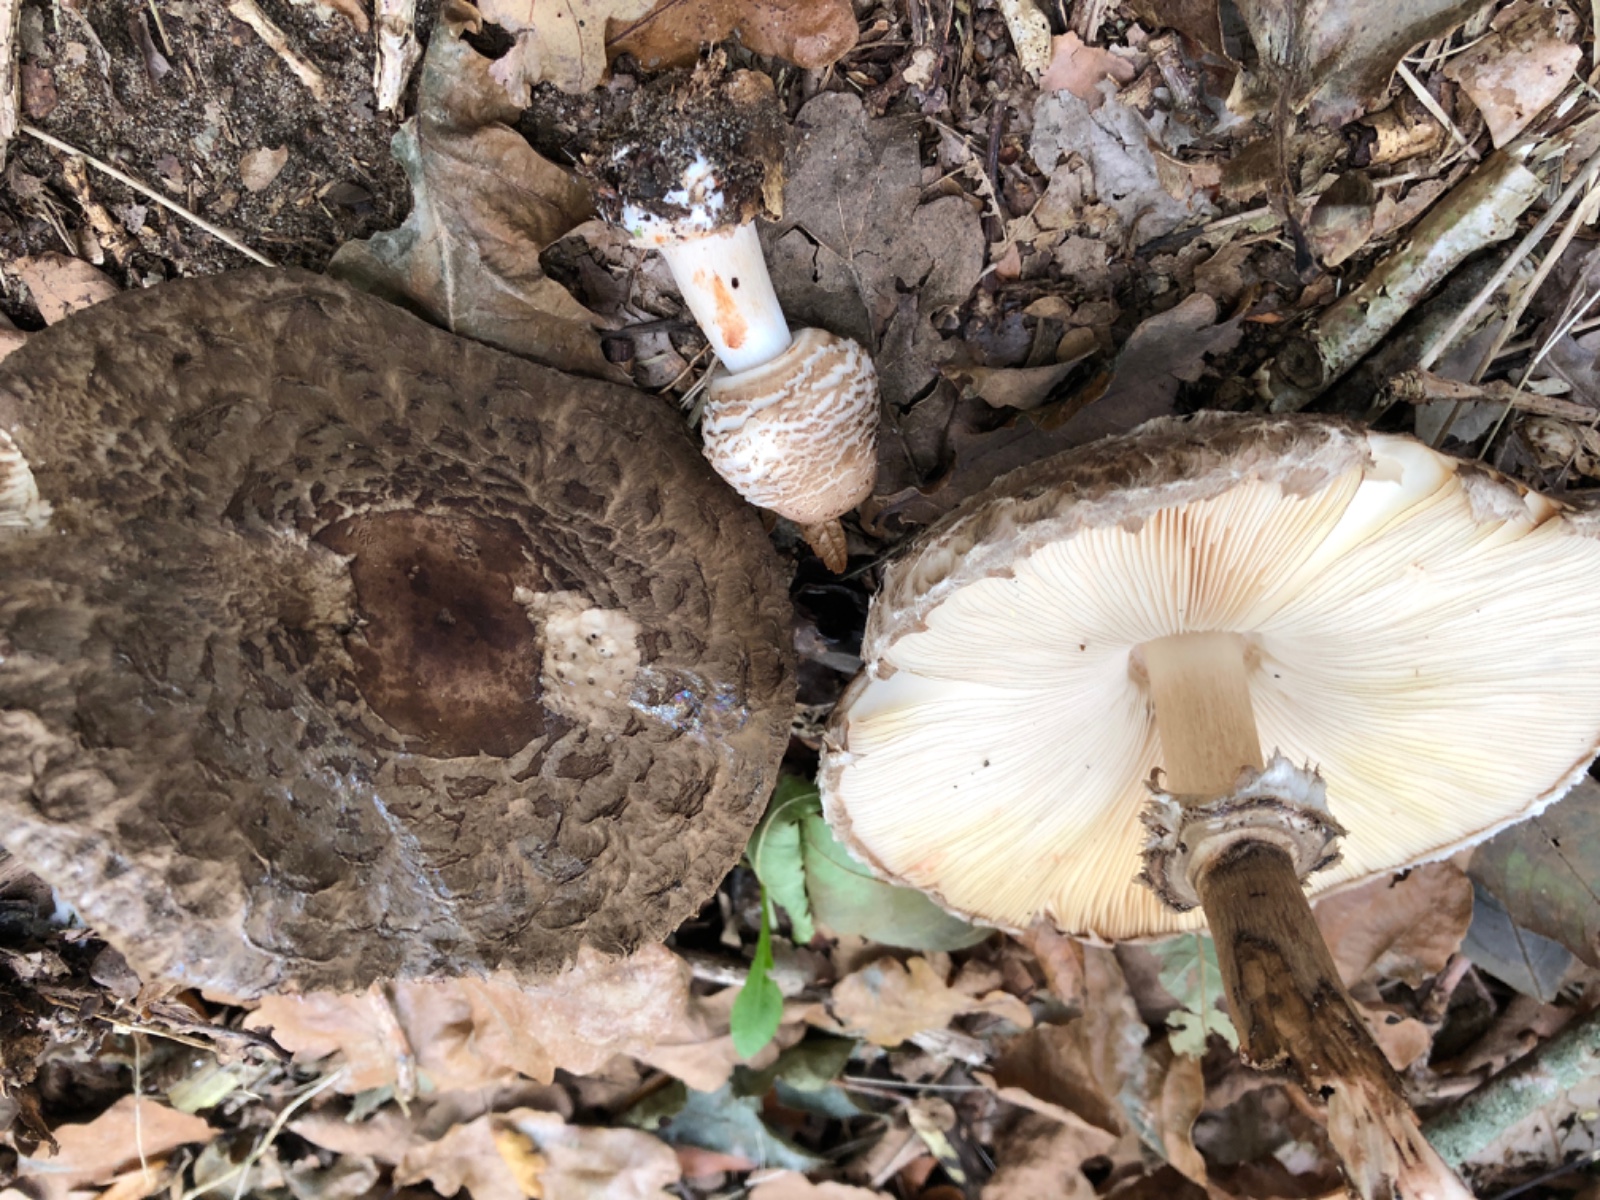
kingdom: Fungi
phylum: Basidiomycota
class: Agaricomycetes
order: Agaricales
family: Tricholomataceae
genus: Paralepista
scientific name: Paralepista flaccida
